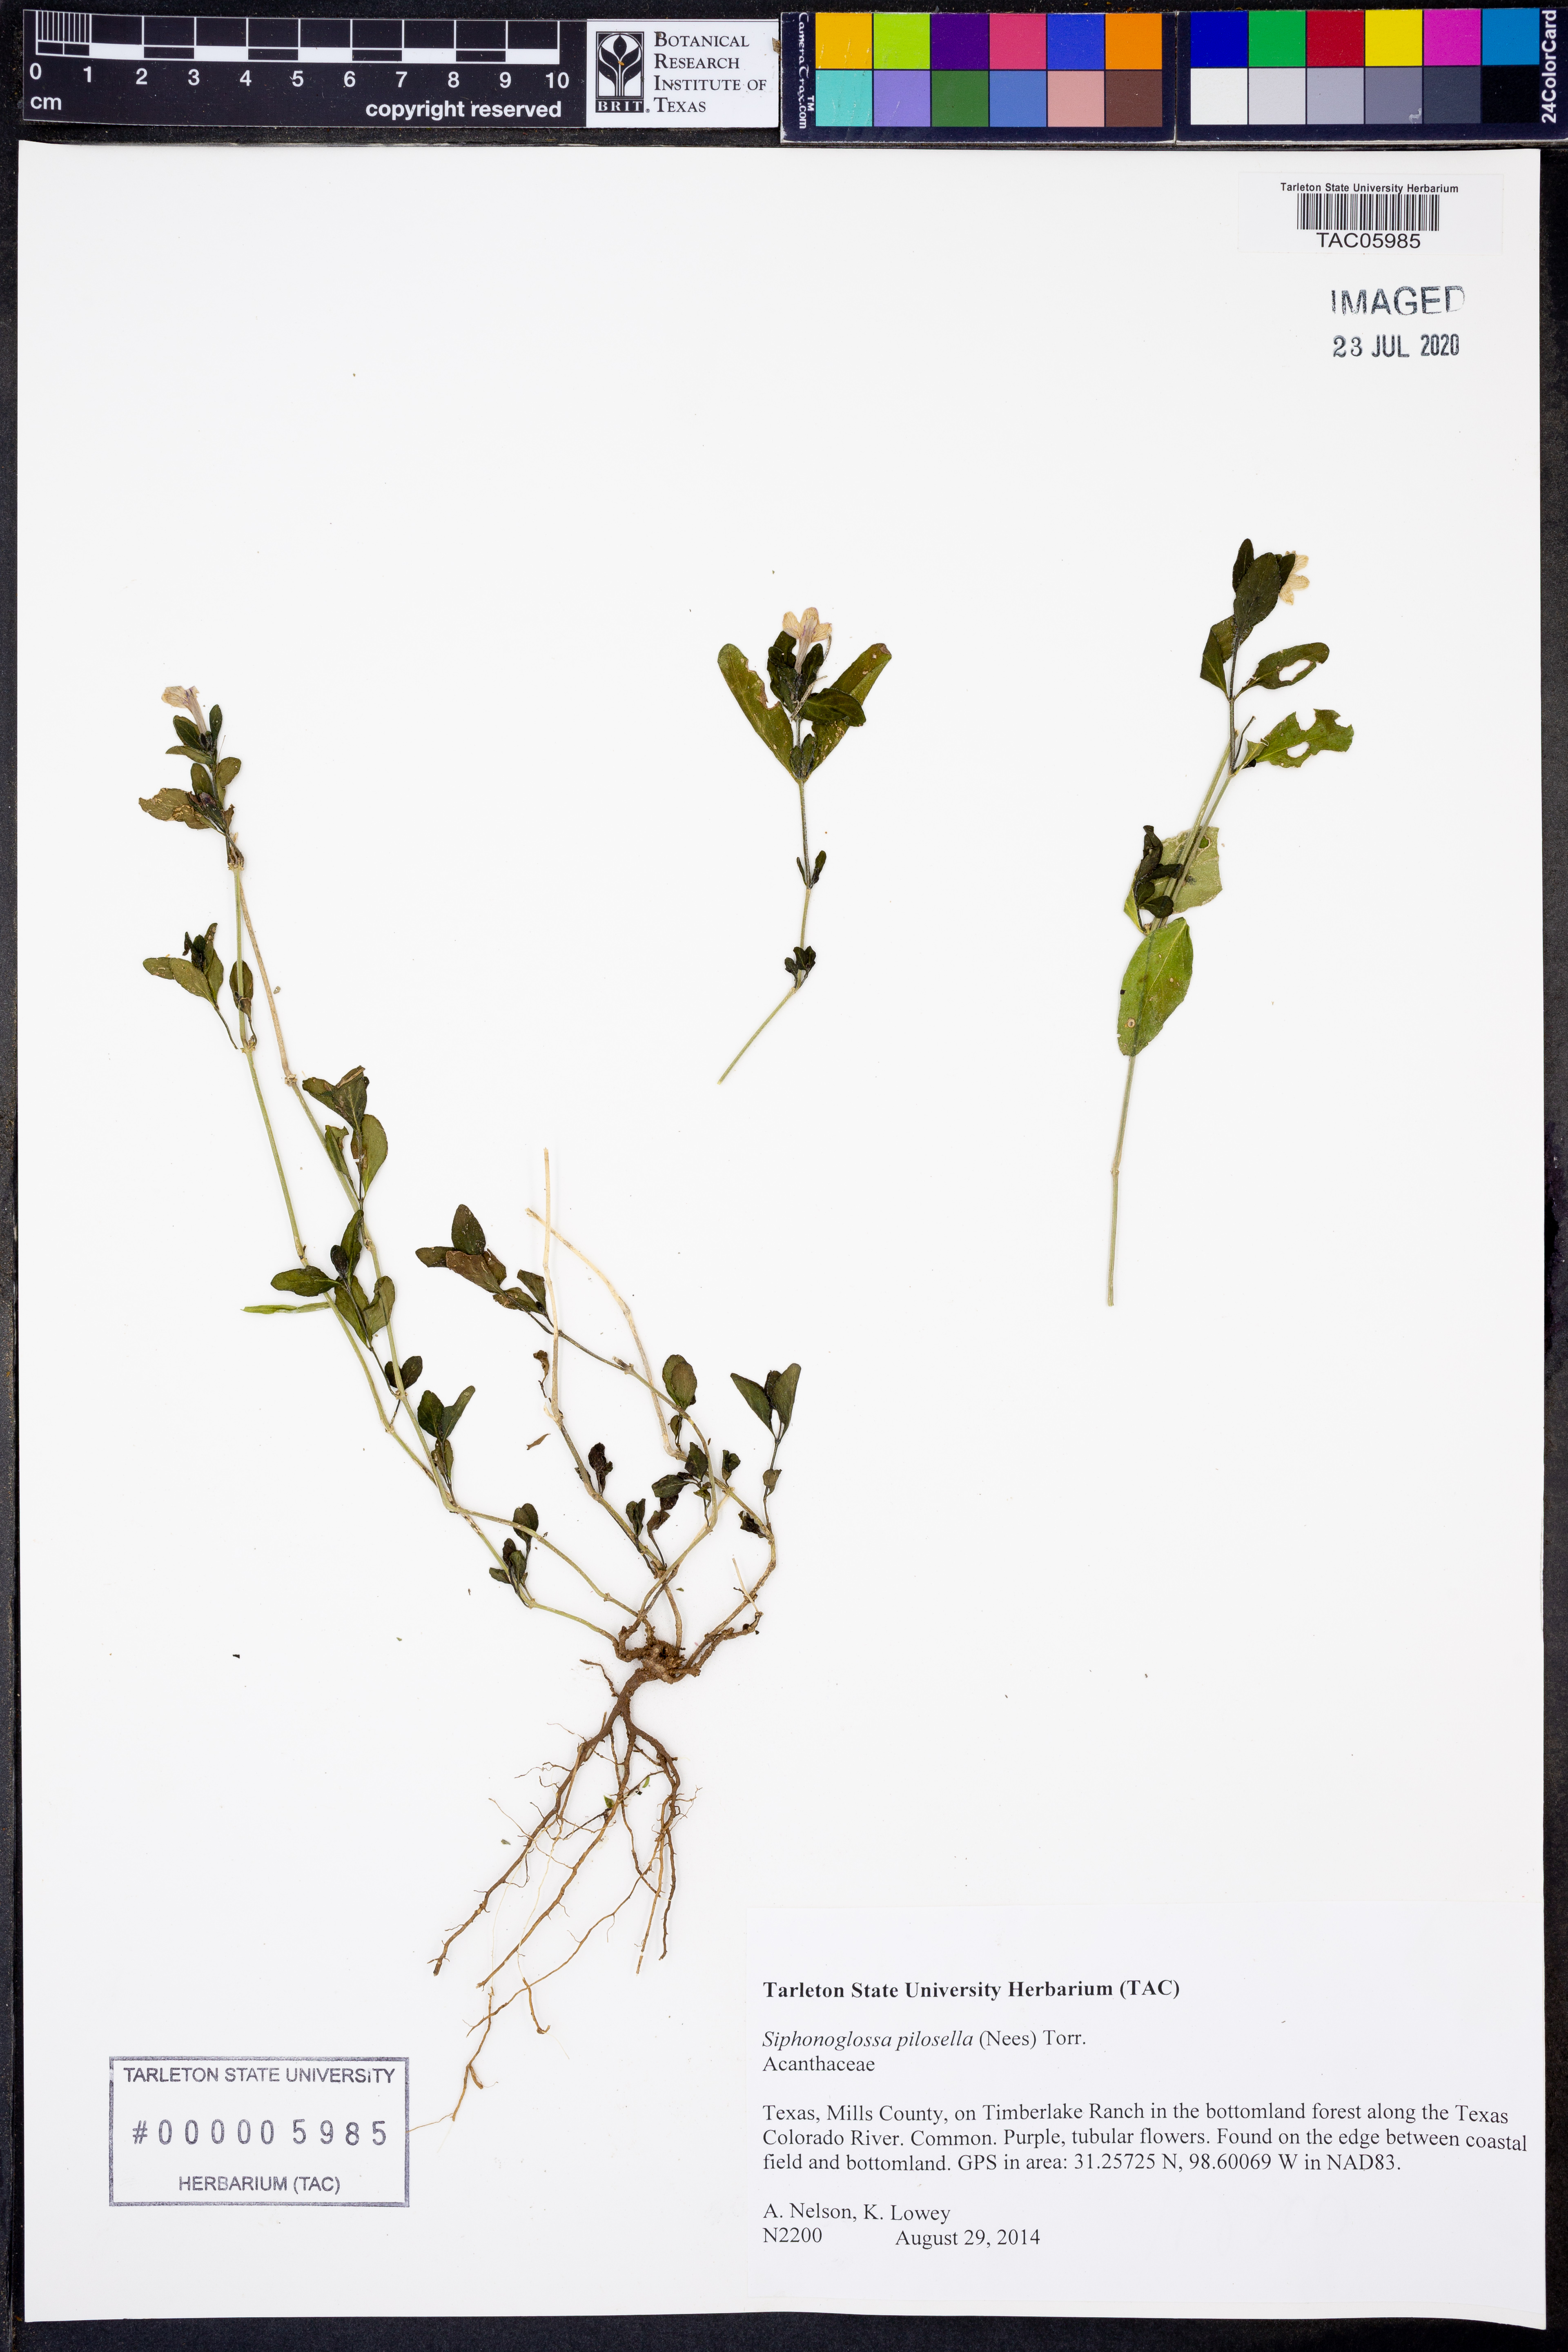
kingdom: Plantae
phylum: Tracheophyta
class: Magnoliopsida
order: Lamiales
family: Acanthaceae
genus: Justicia
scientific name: Justicia pilosella
